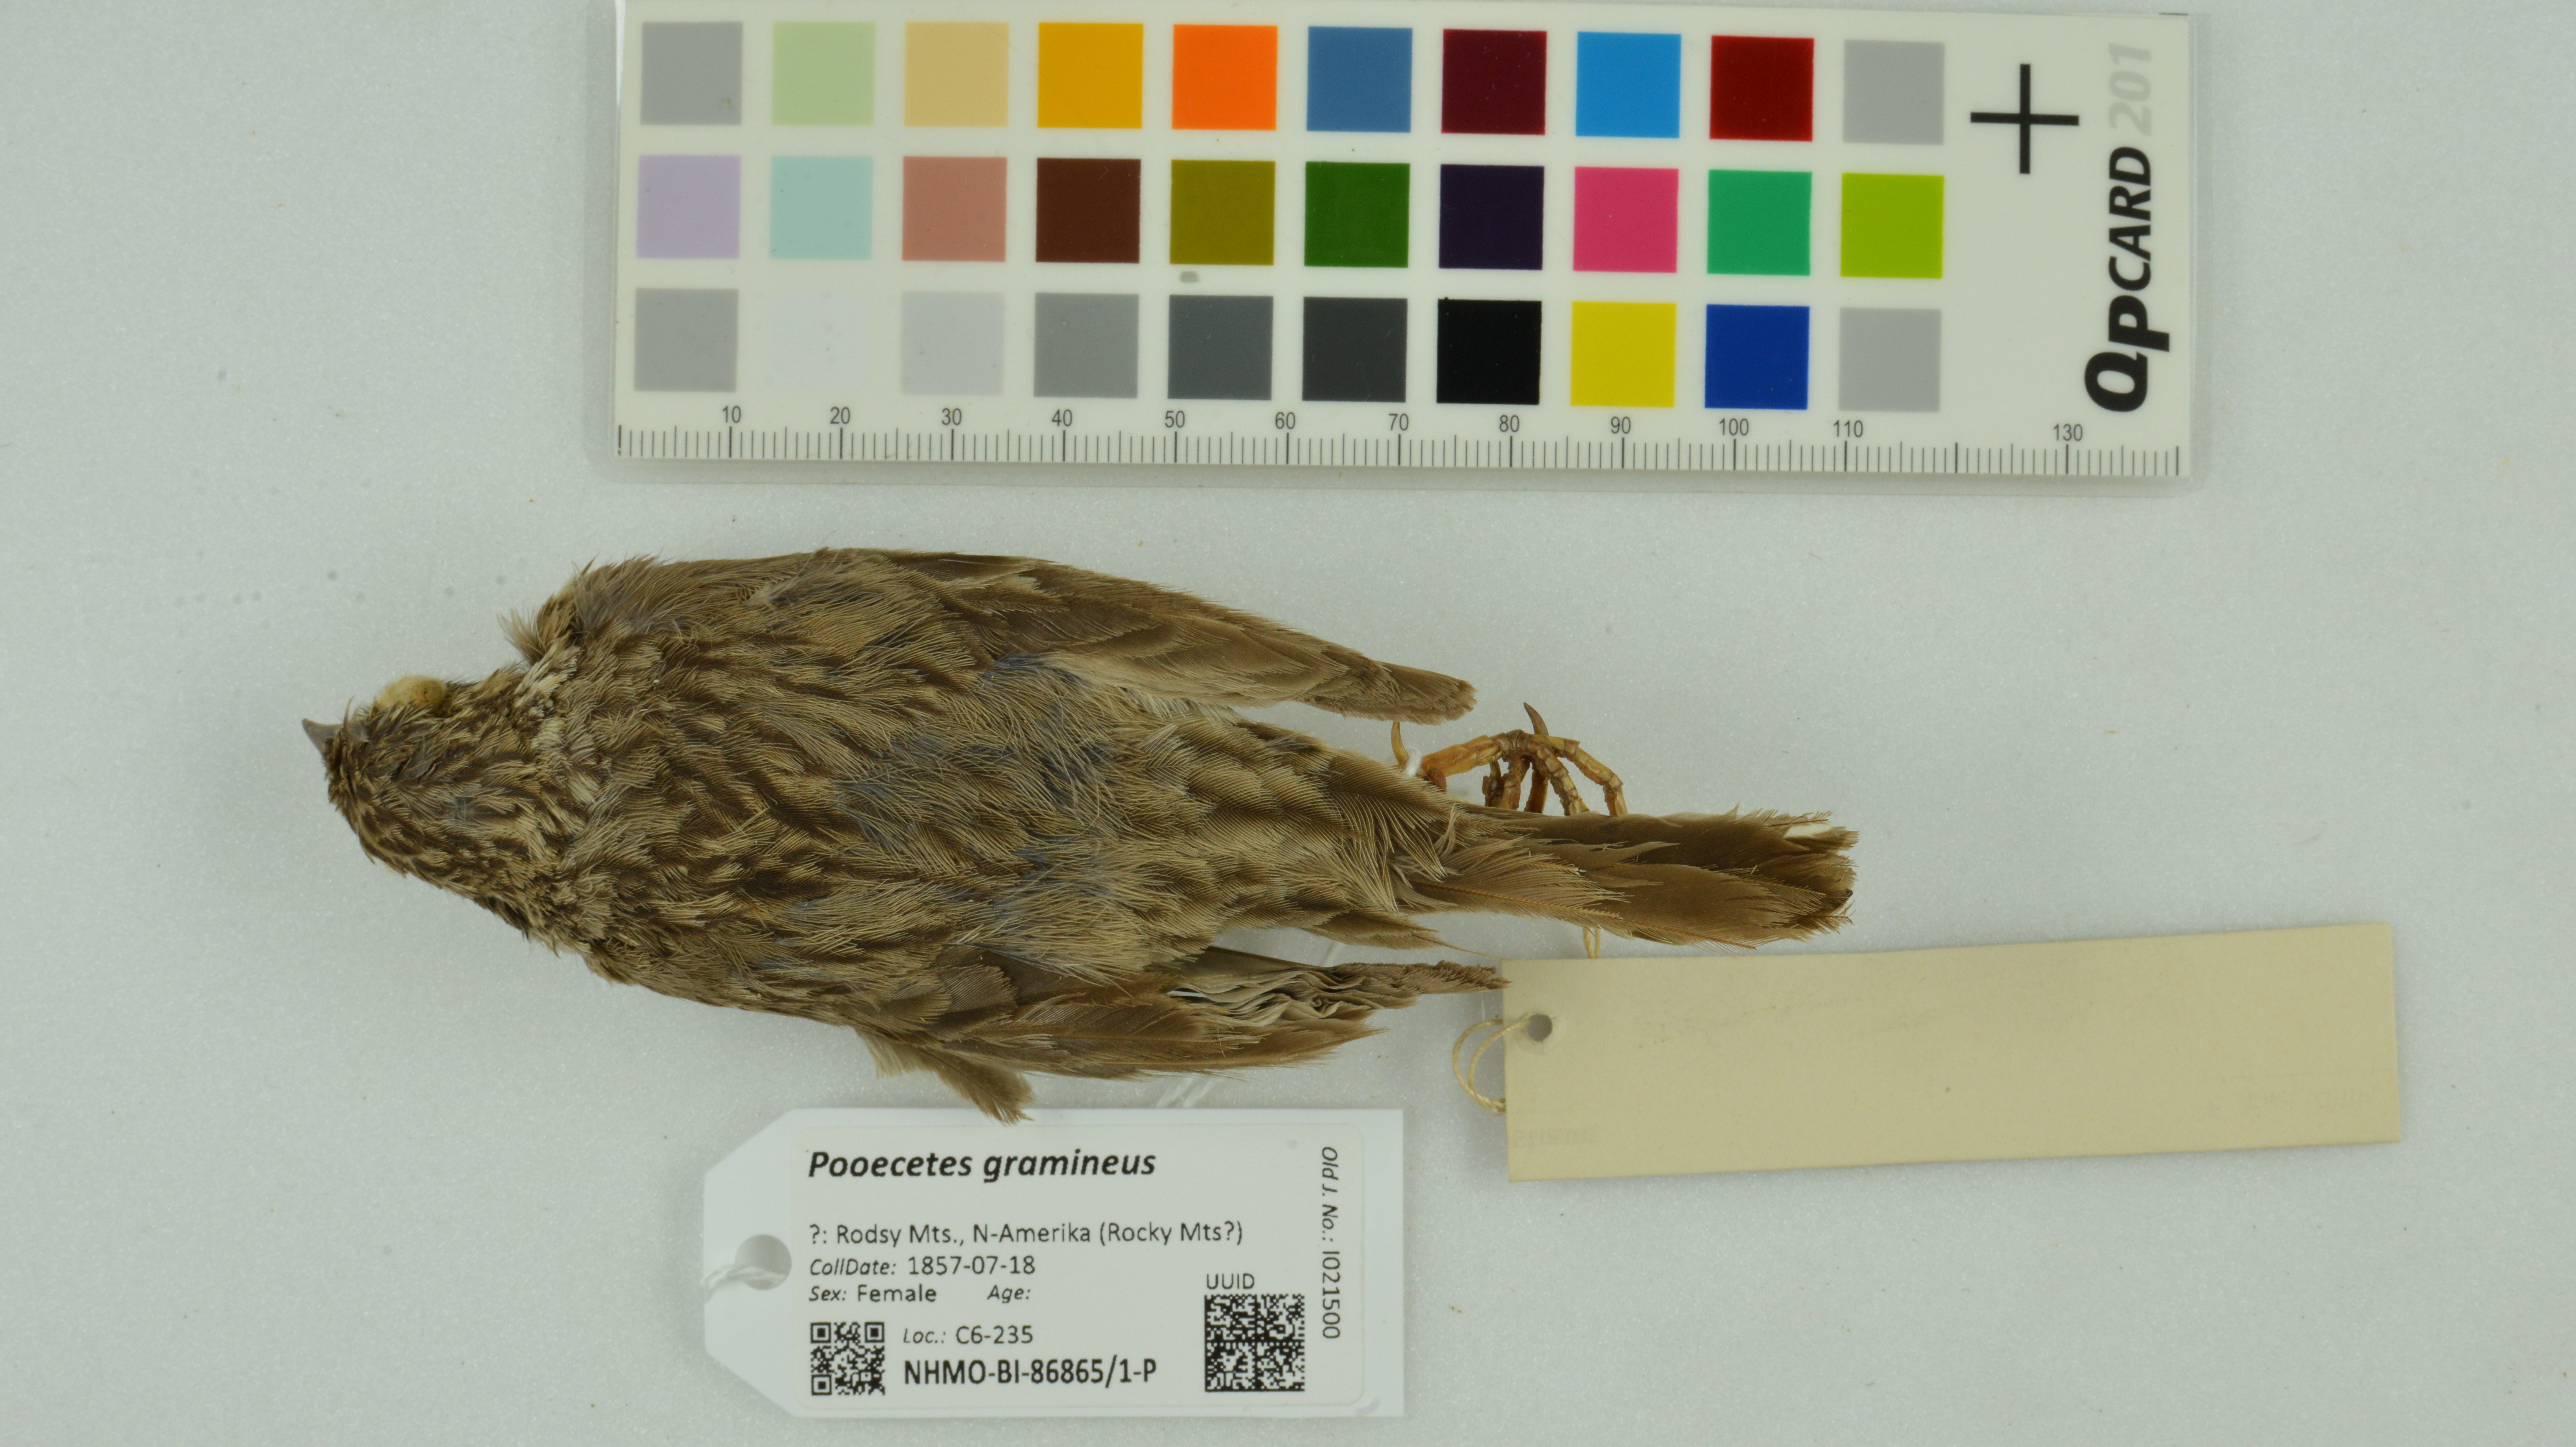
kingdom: Animalia
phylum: Chordata
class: Aves
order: Passeriformes
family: Passerellidae
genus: Pooecetes
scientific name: Pooecetes gramineus
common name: Vesper sparrow
